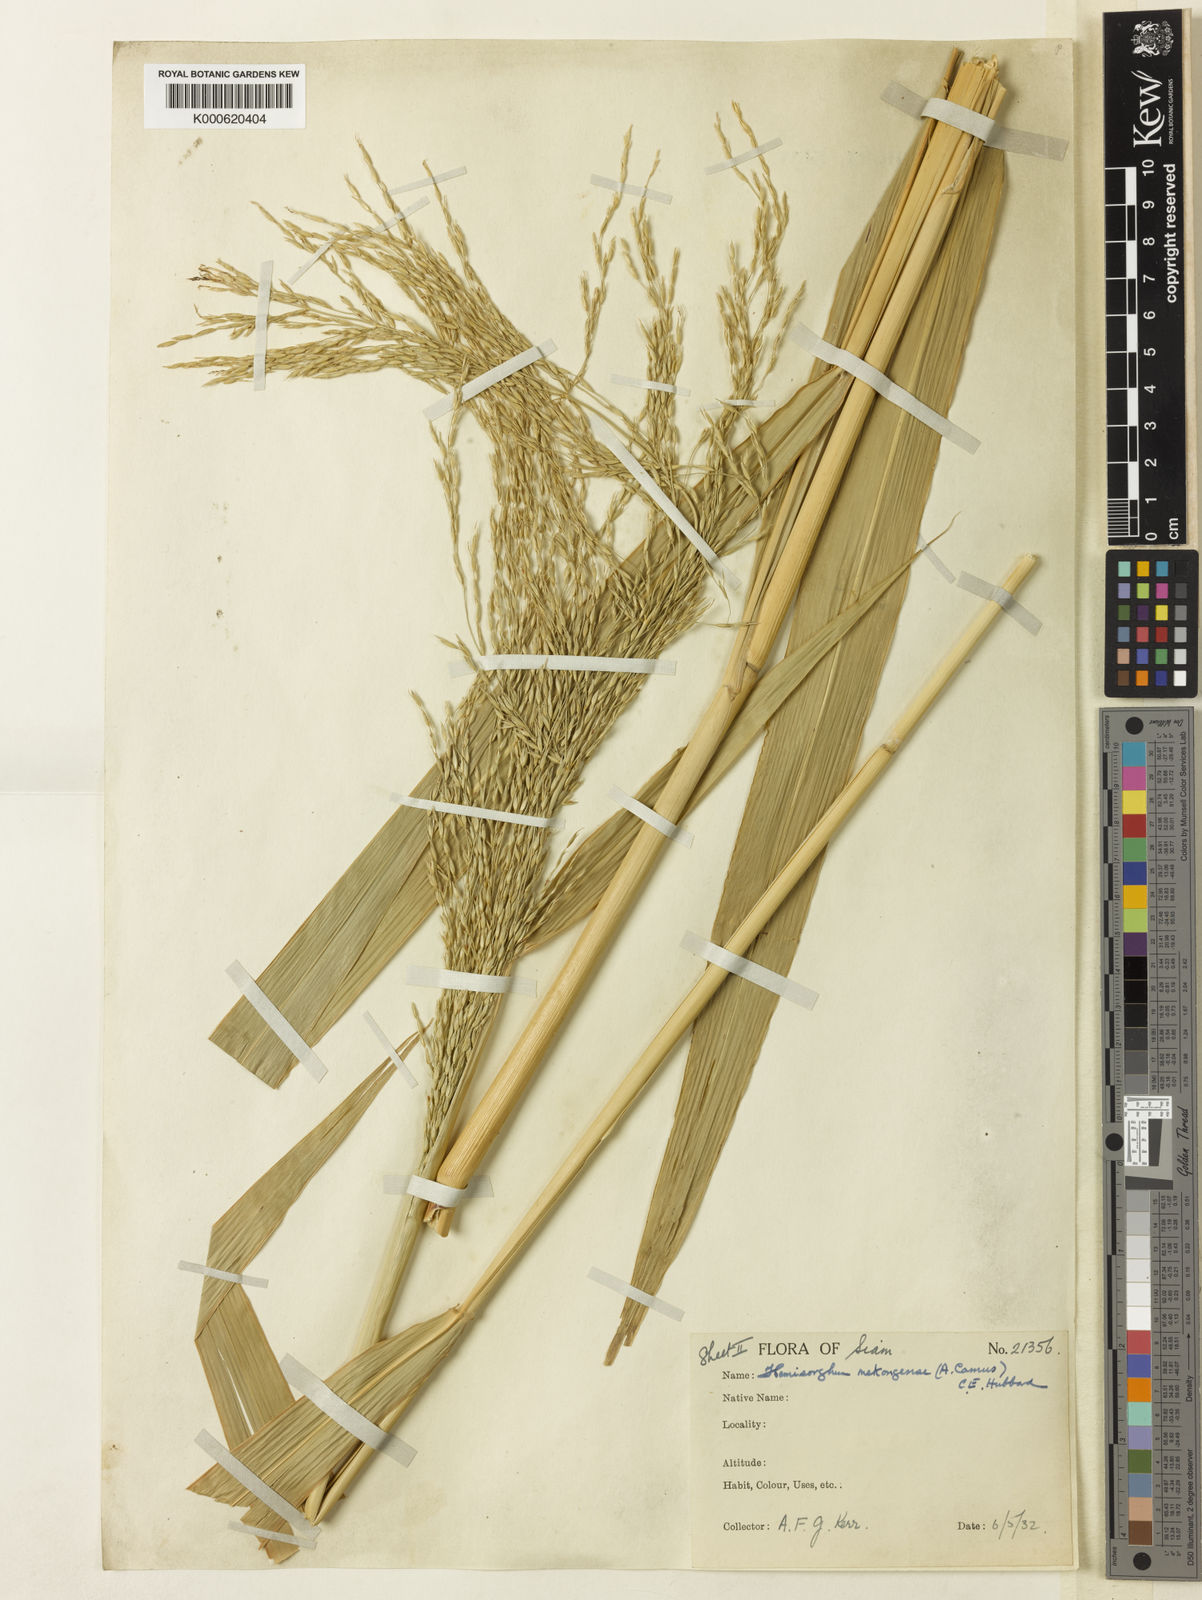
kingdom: Plantae
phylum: Tracheophyta
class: Liliopsida
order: Poales
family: Poaceae
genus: Hemisorghum
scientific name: Hemisorghum mekongense
